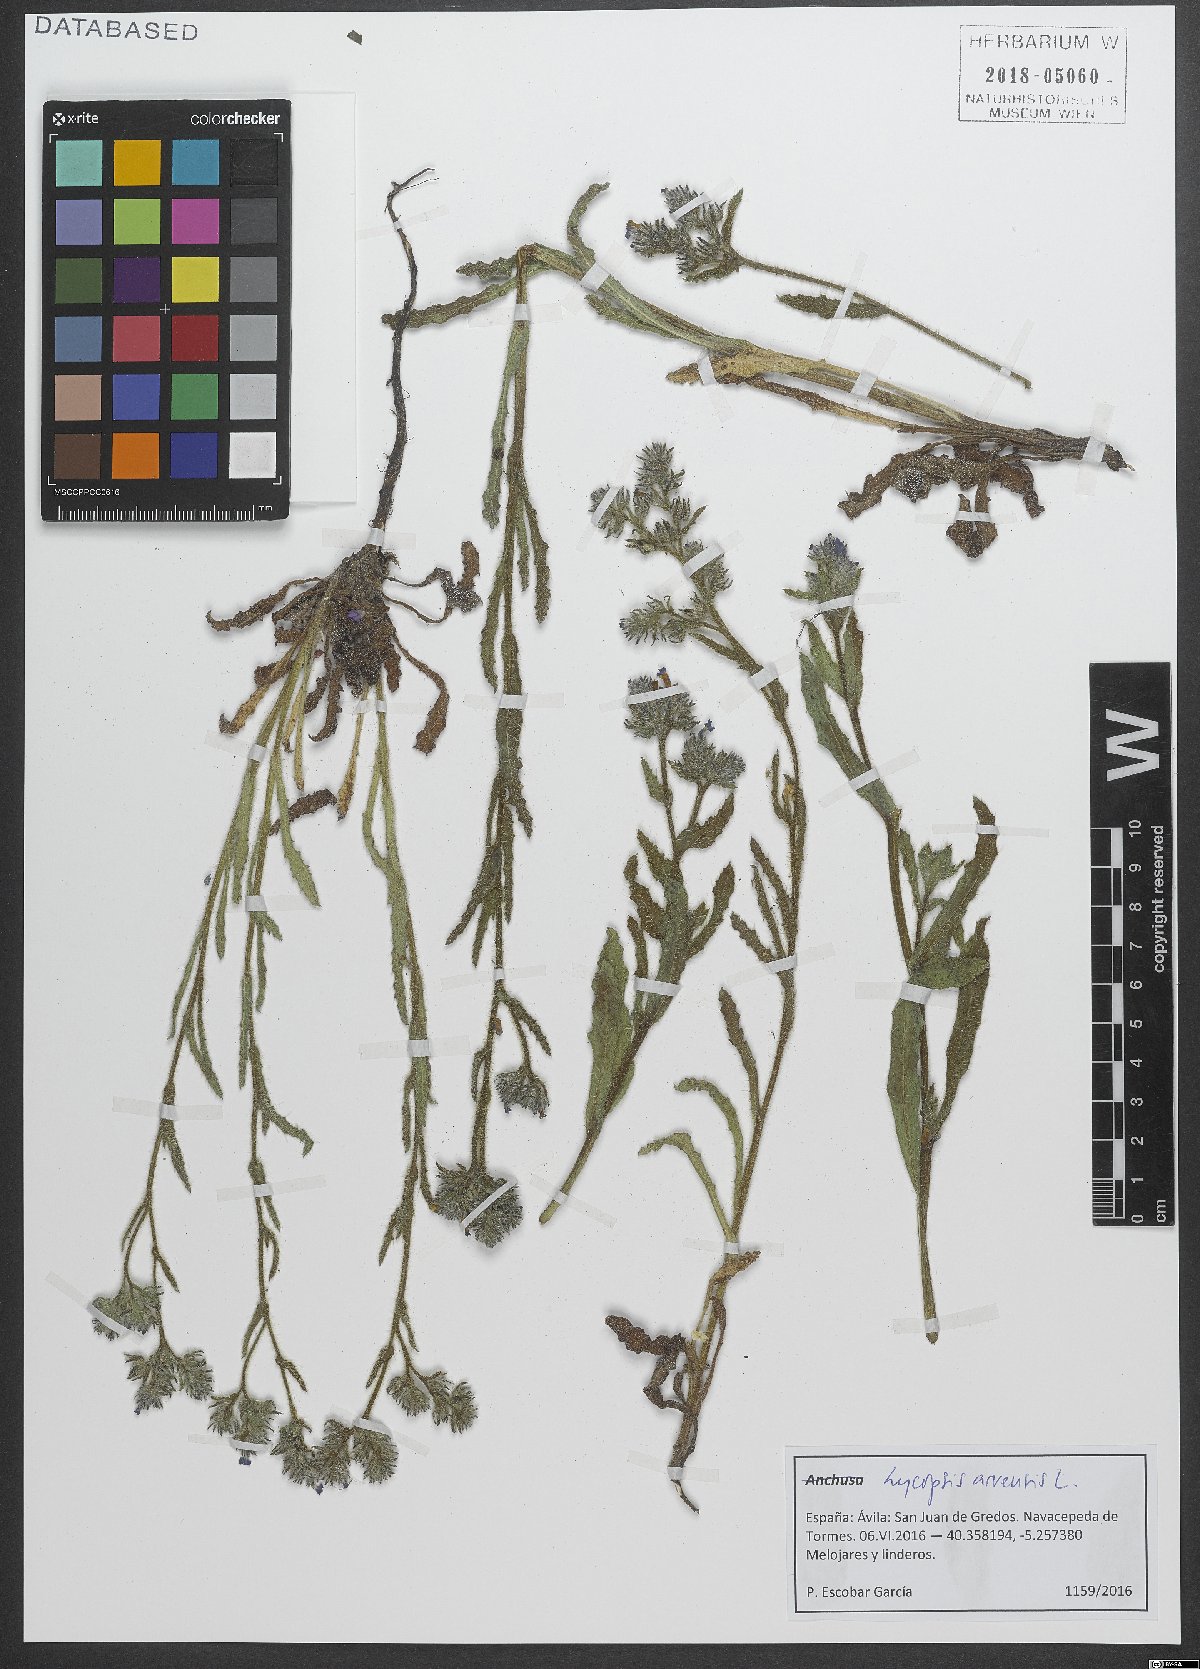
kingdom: Plantae
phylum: Tracheophyta
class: Magnoliopsida
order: Boraginales
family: Boraginaceae
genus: Lycopsis
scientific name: Lycopsis arvensis
